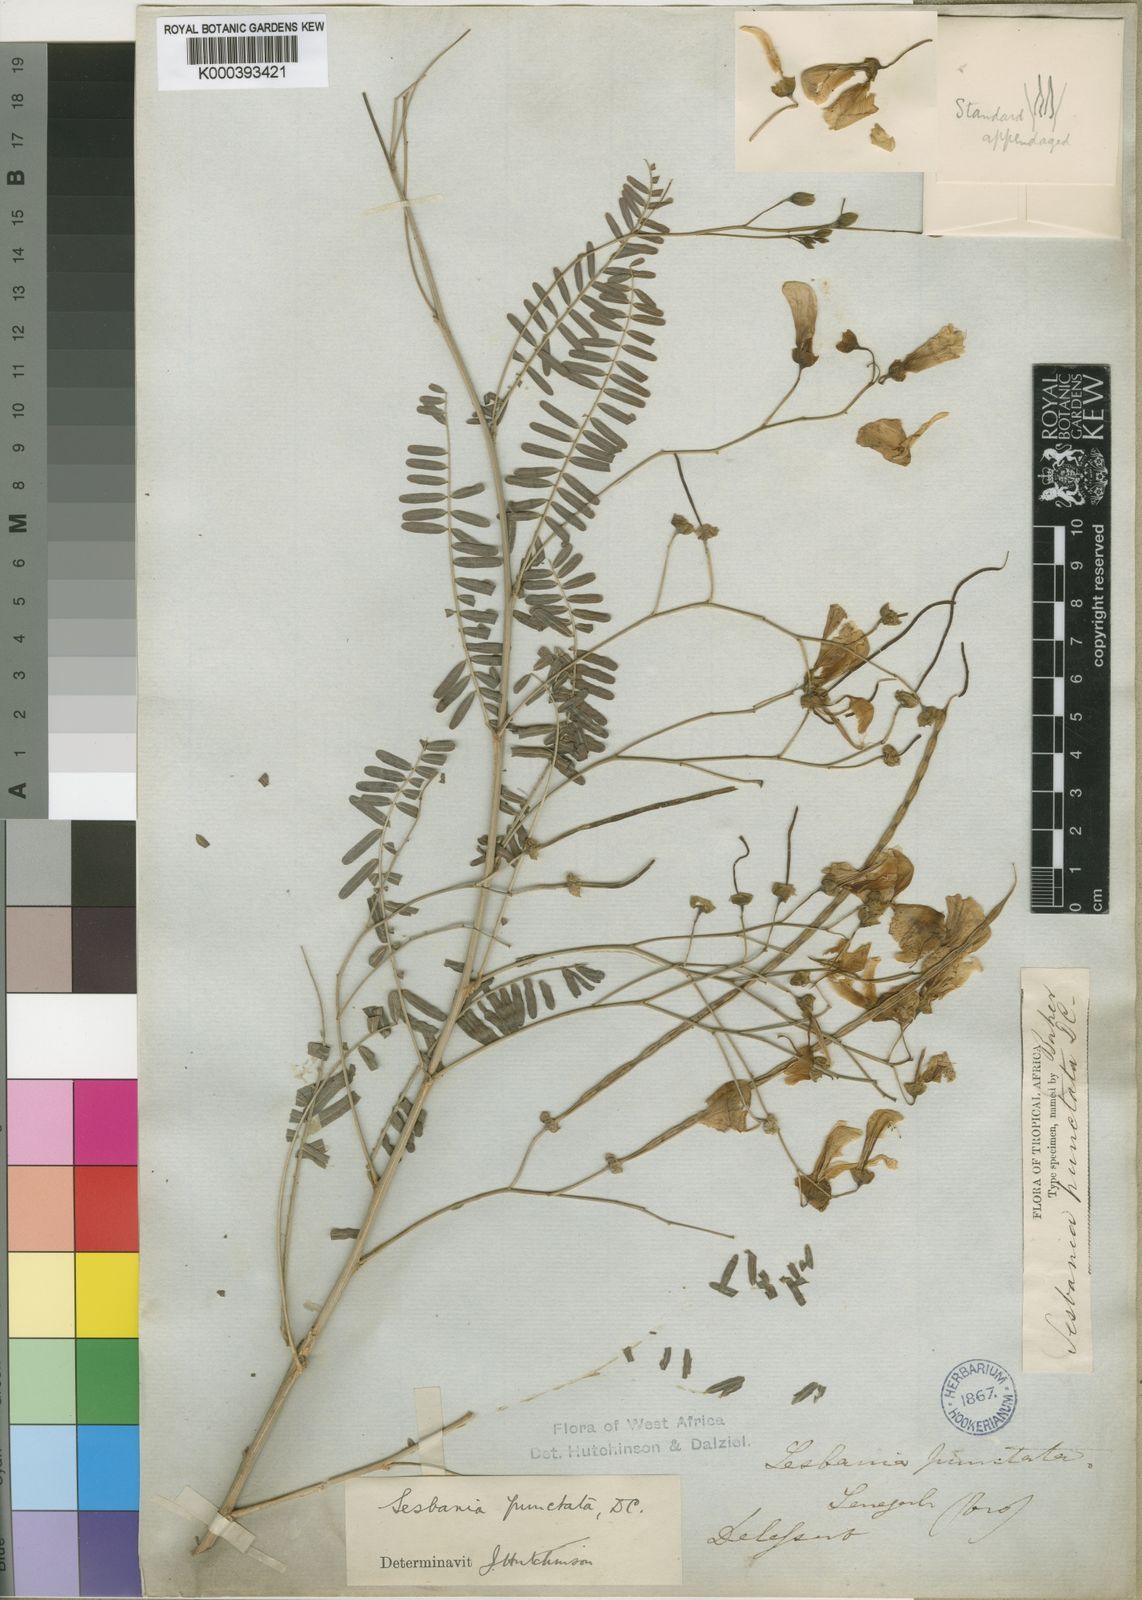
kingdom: Plantae
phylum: Tracheophyta
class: Magnoliopsida
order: Fabales
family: Fabaceae
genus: Sesbania
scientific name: Sesbania sesban
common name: Egyptian sesban
